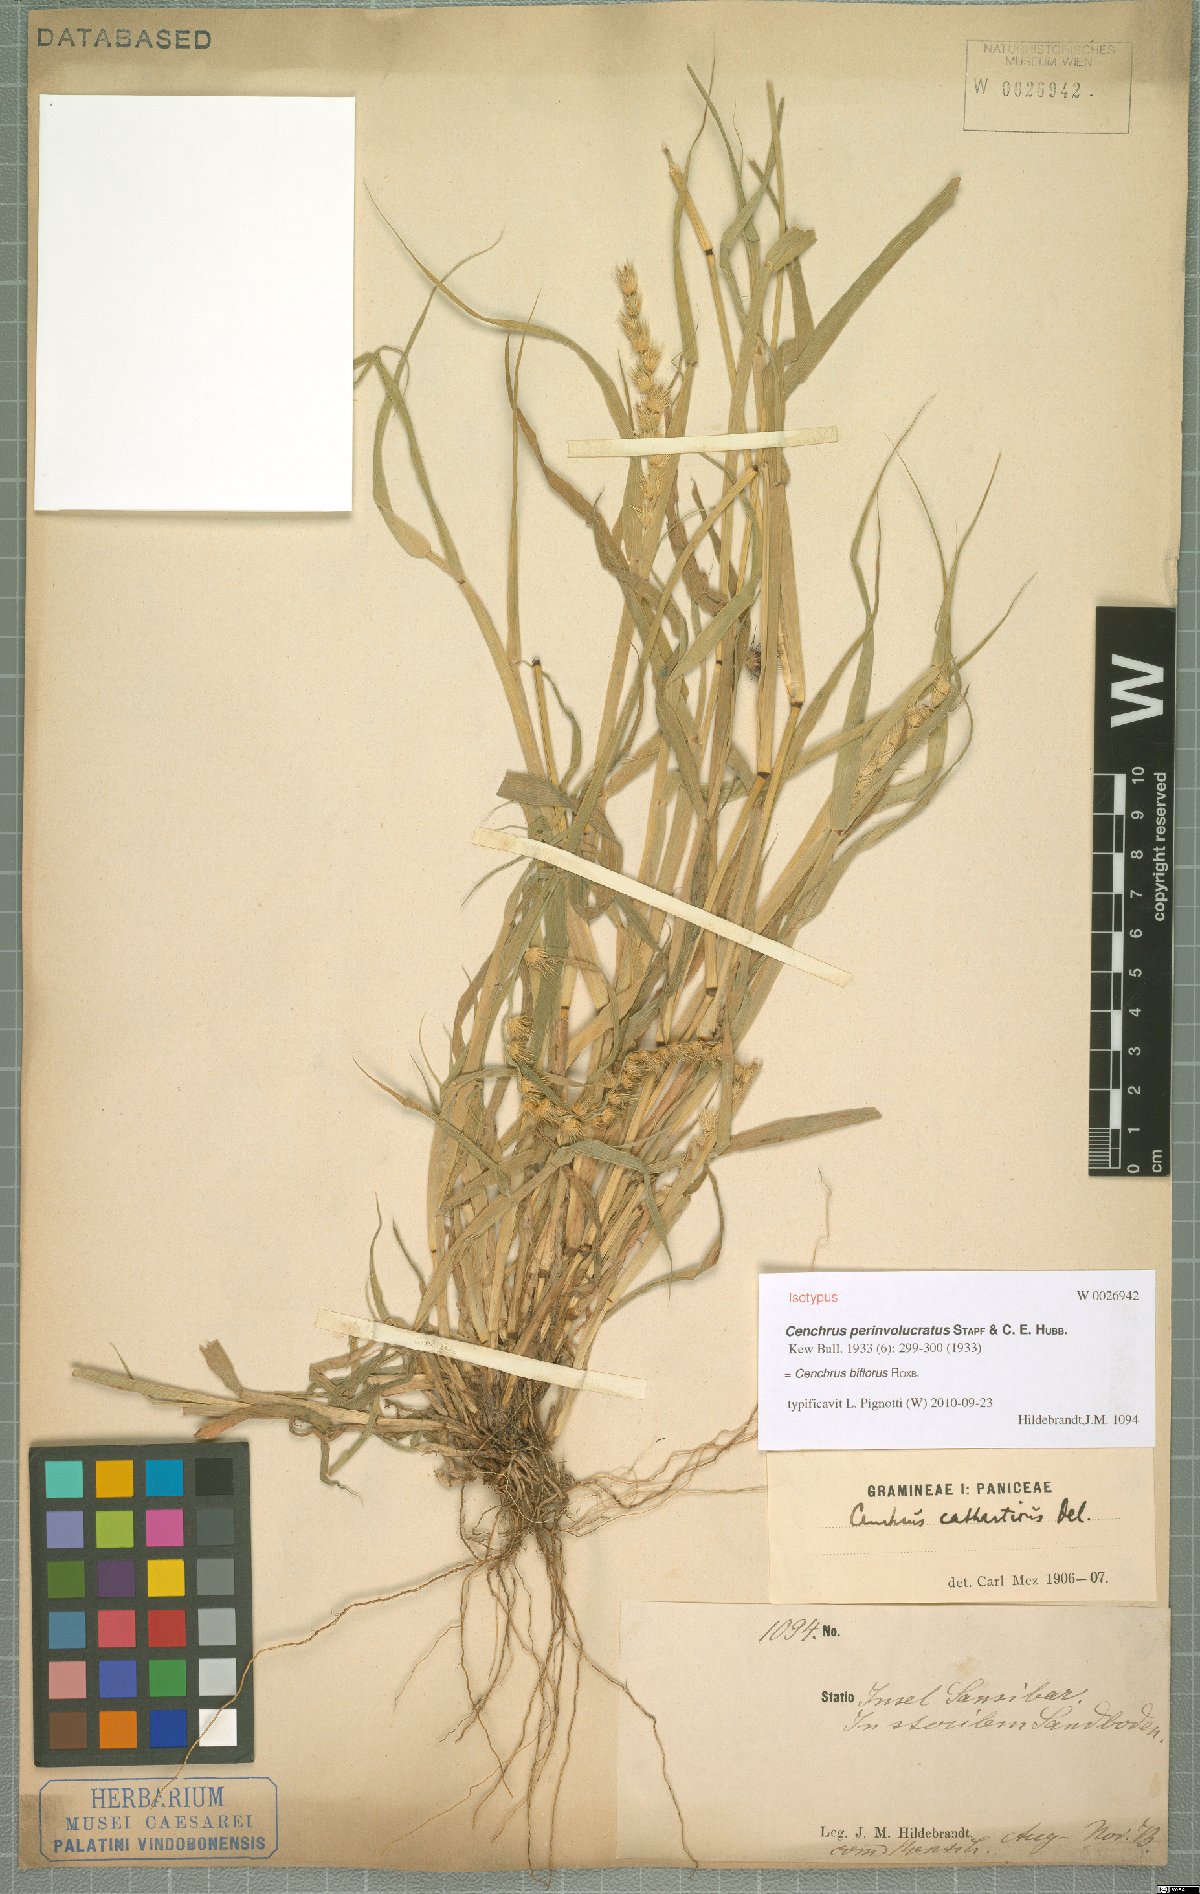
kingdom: Plantae
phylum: Tracheophyta
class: Liliopsida
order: Poales
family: Poaceae
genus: Cenchrus
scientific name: Cenchrus biflorus
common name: Indian sandbur
